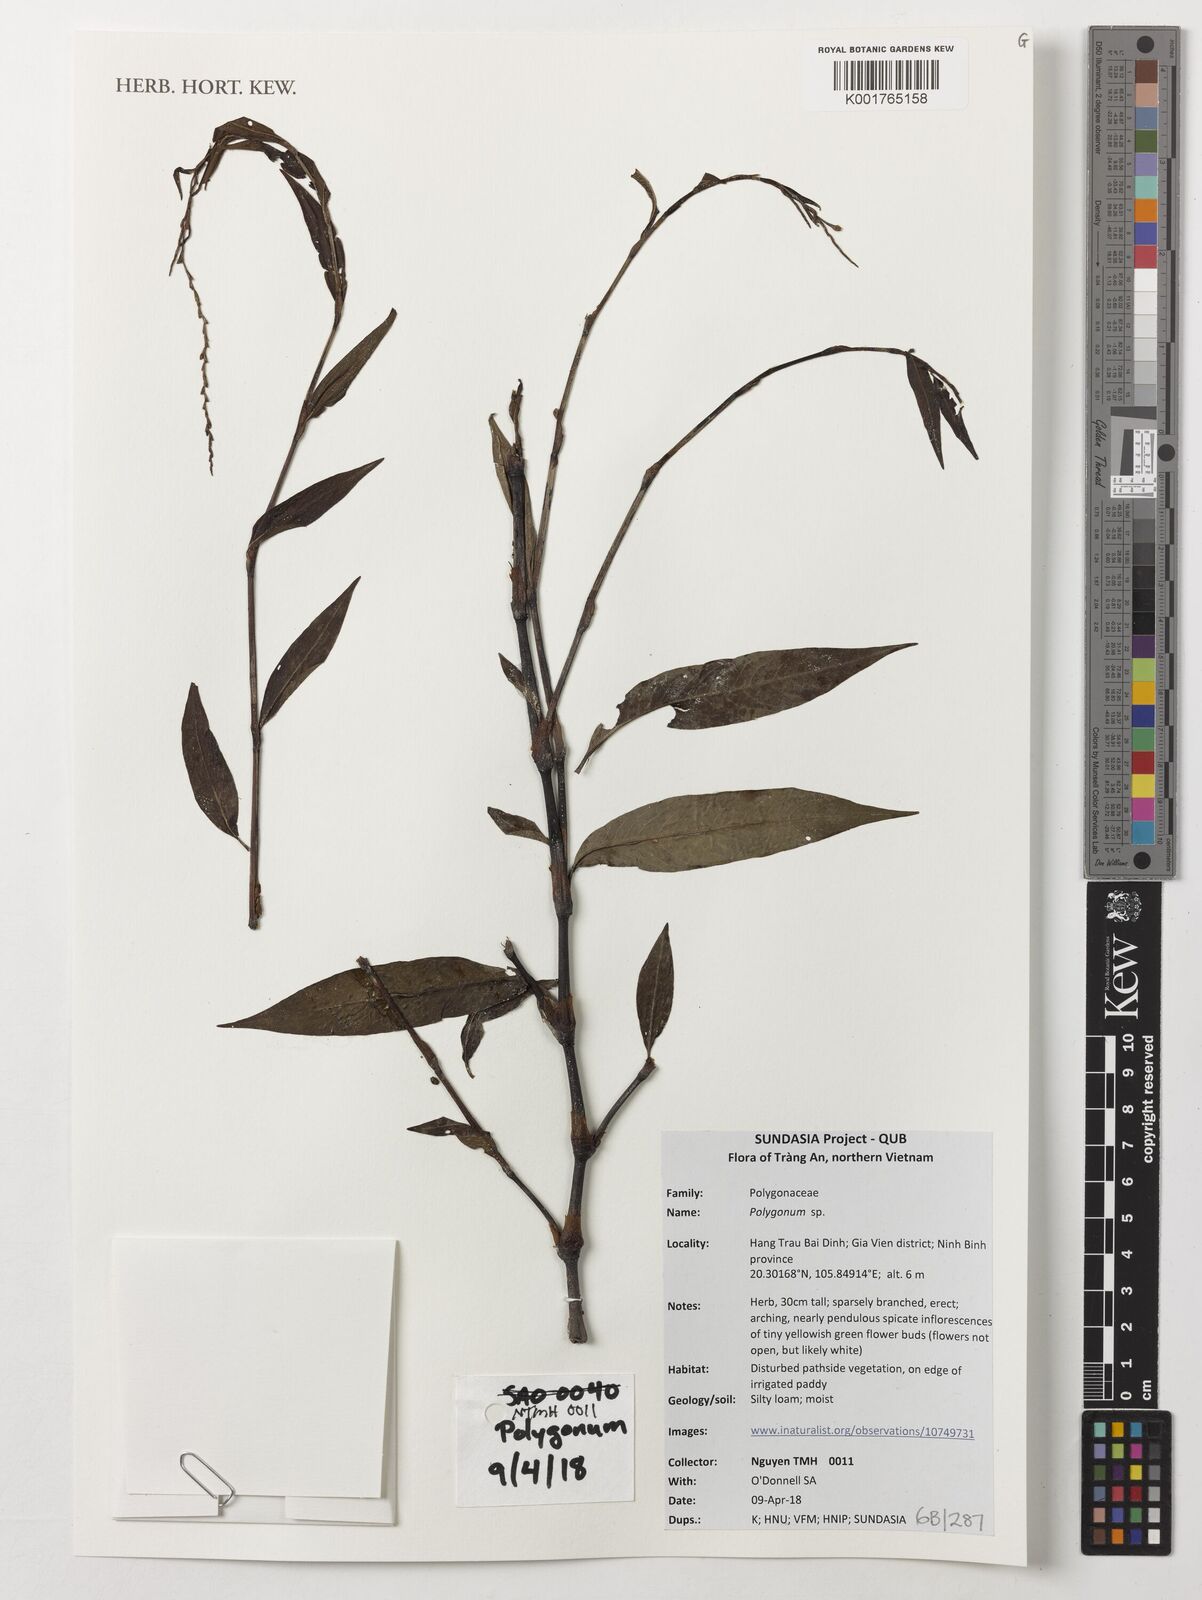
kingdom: Plantae
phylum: Tracheophyta
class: Magnoliopsida
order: Caryophyllales
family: Polygonaceae
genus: Polygonum
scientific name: Polygonum
